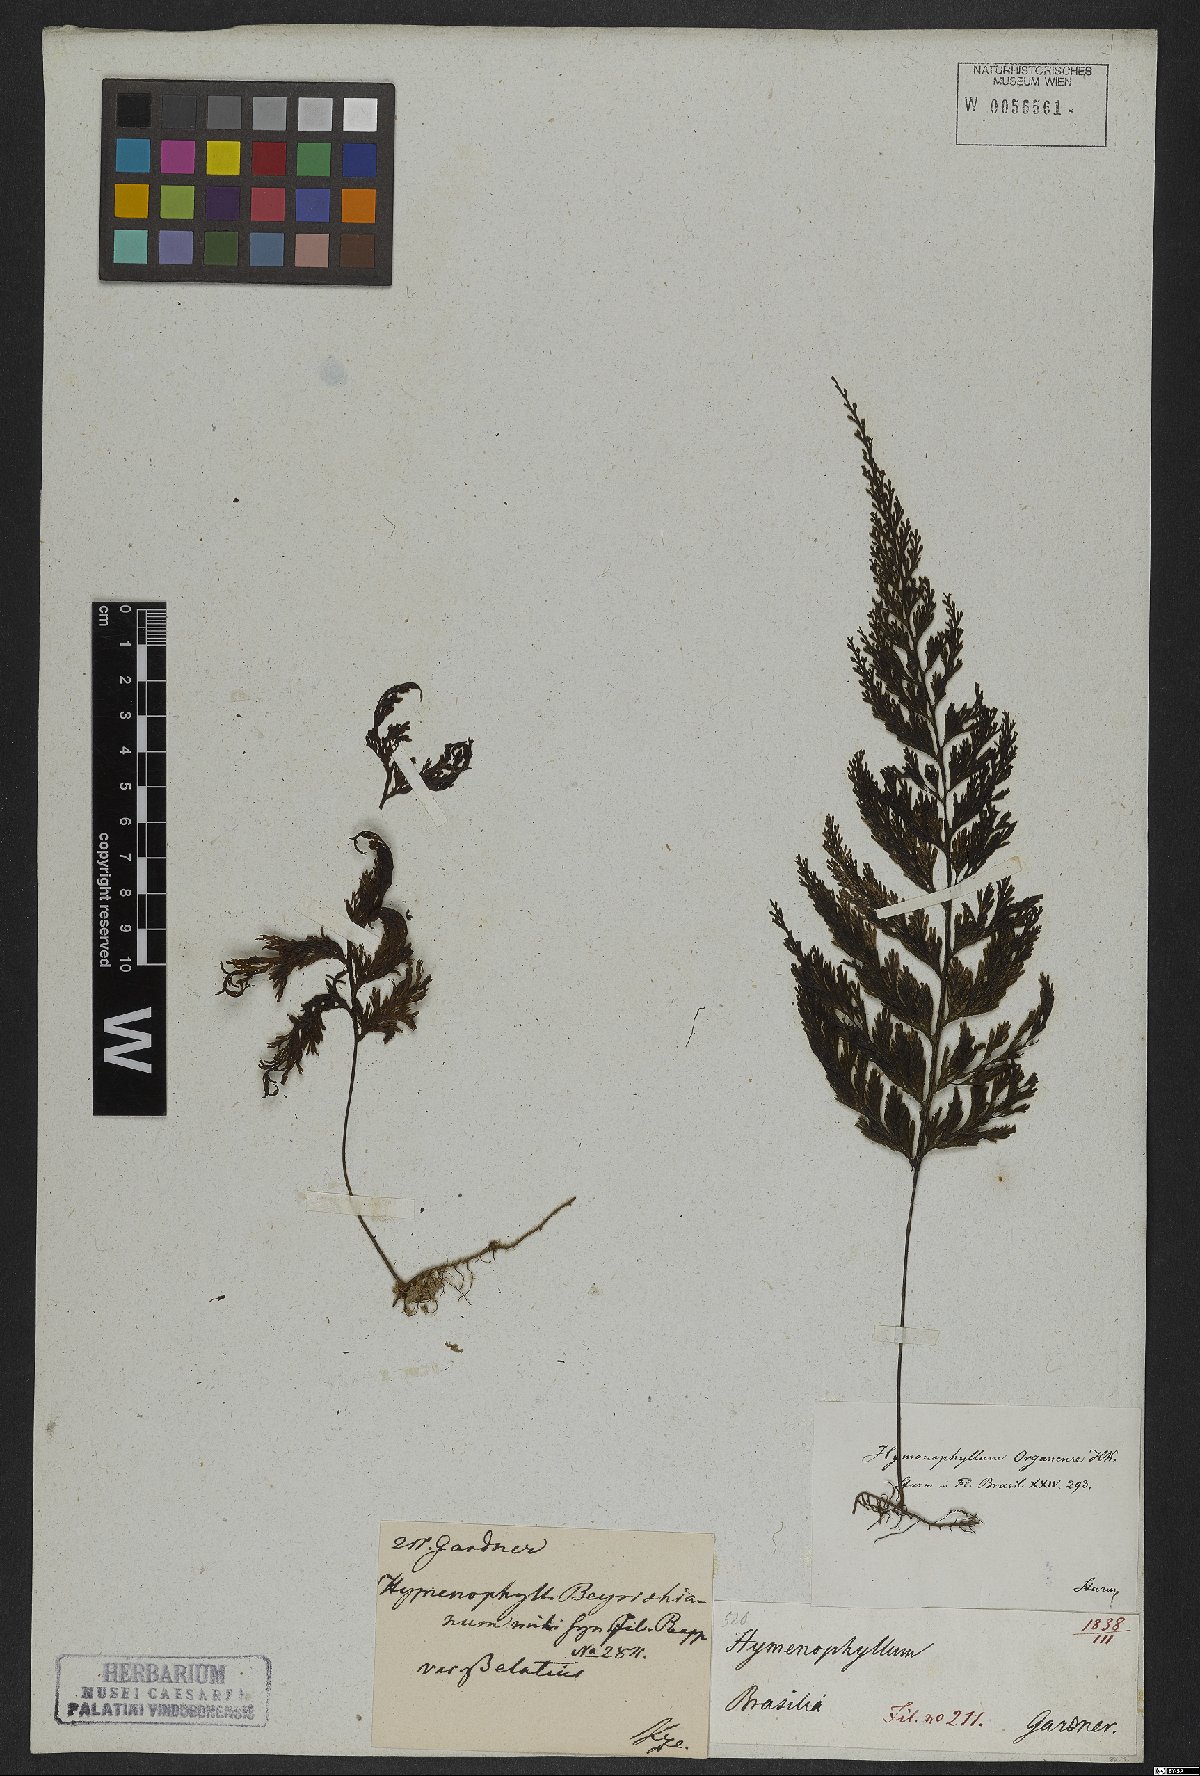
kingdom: Plantae
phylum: Tracheophyta
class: Polypodiopsida
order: Hymenophyllales
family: Hymenophyllaceae
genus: Hymenophyllum
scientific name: Hymenophyllum microcarpum
